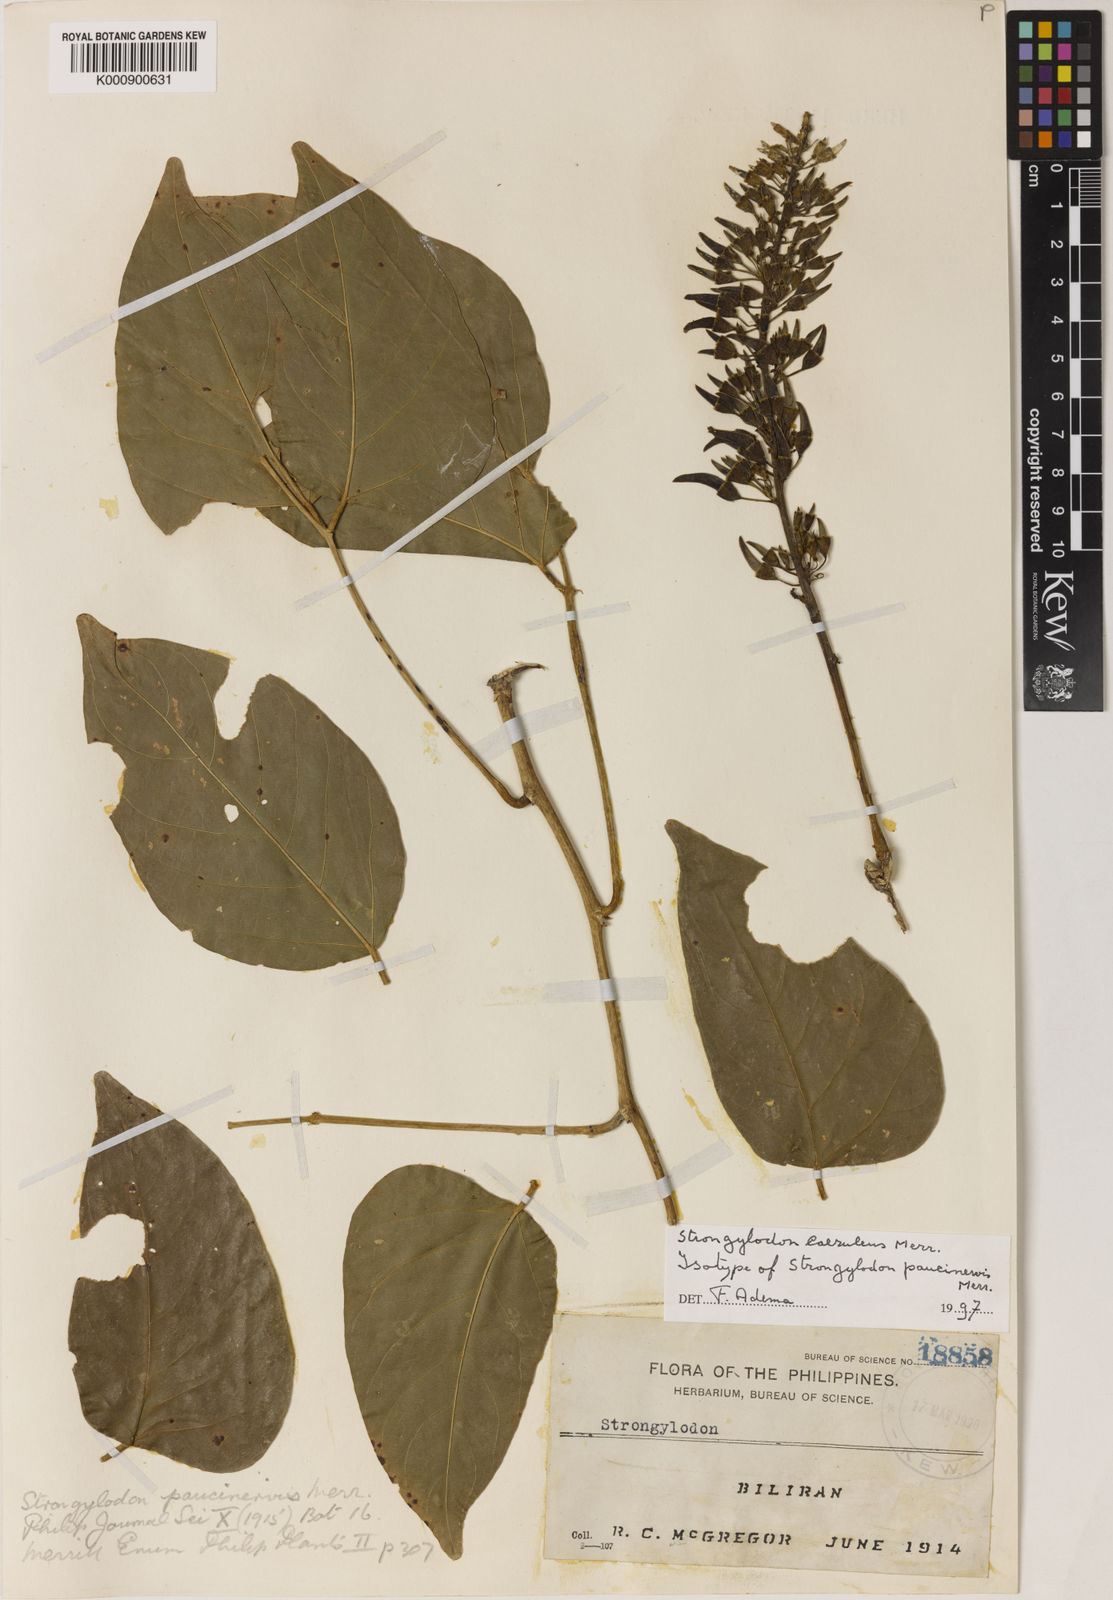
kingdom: Plantae
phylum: Tracheophyta
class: Magnoliopsida
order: Fabales
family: Fabaceae
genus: Strongylodon
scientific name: Strongylodon caeruleus
